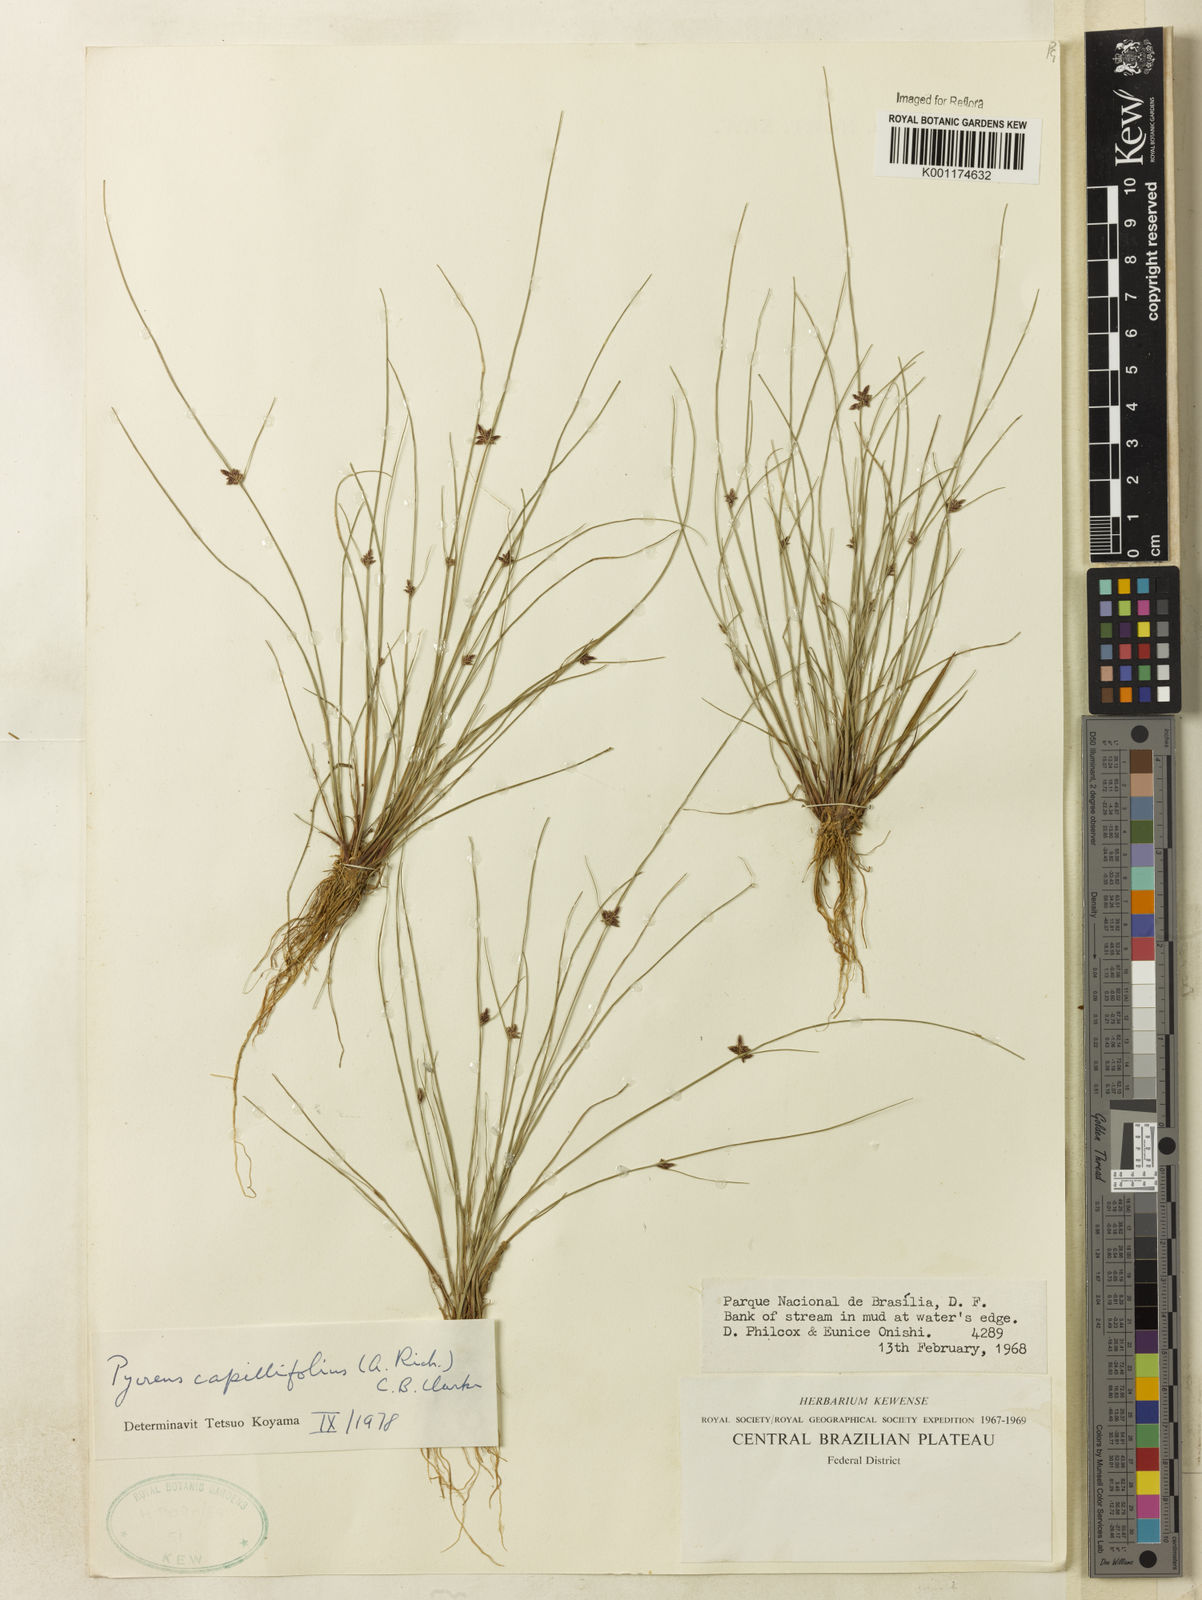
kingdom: Plantae
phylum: Tracheophyta
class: Liliopsida
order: Poales
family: Cyperaceae
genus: Cyperus
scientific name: Cyperus capillifolius
